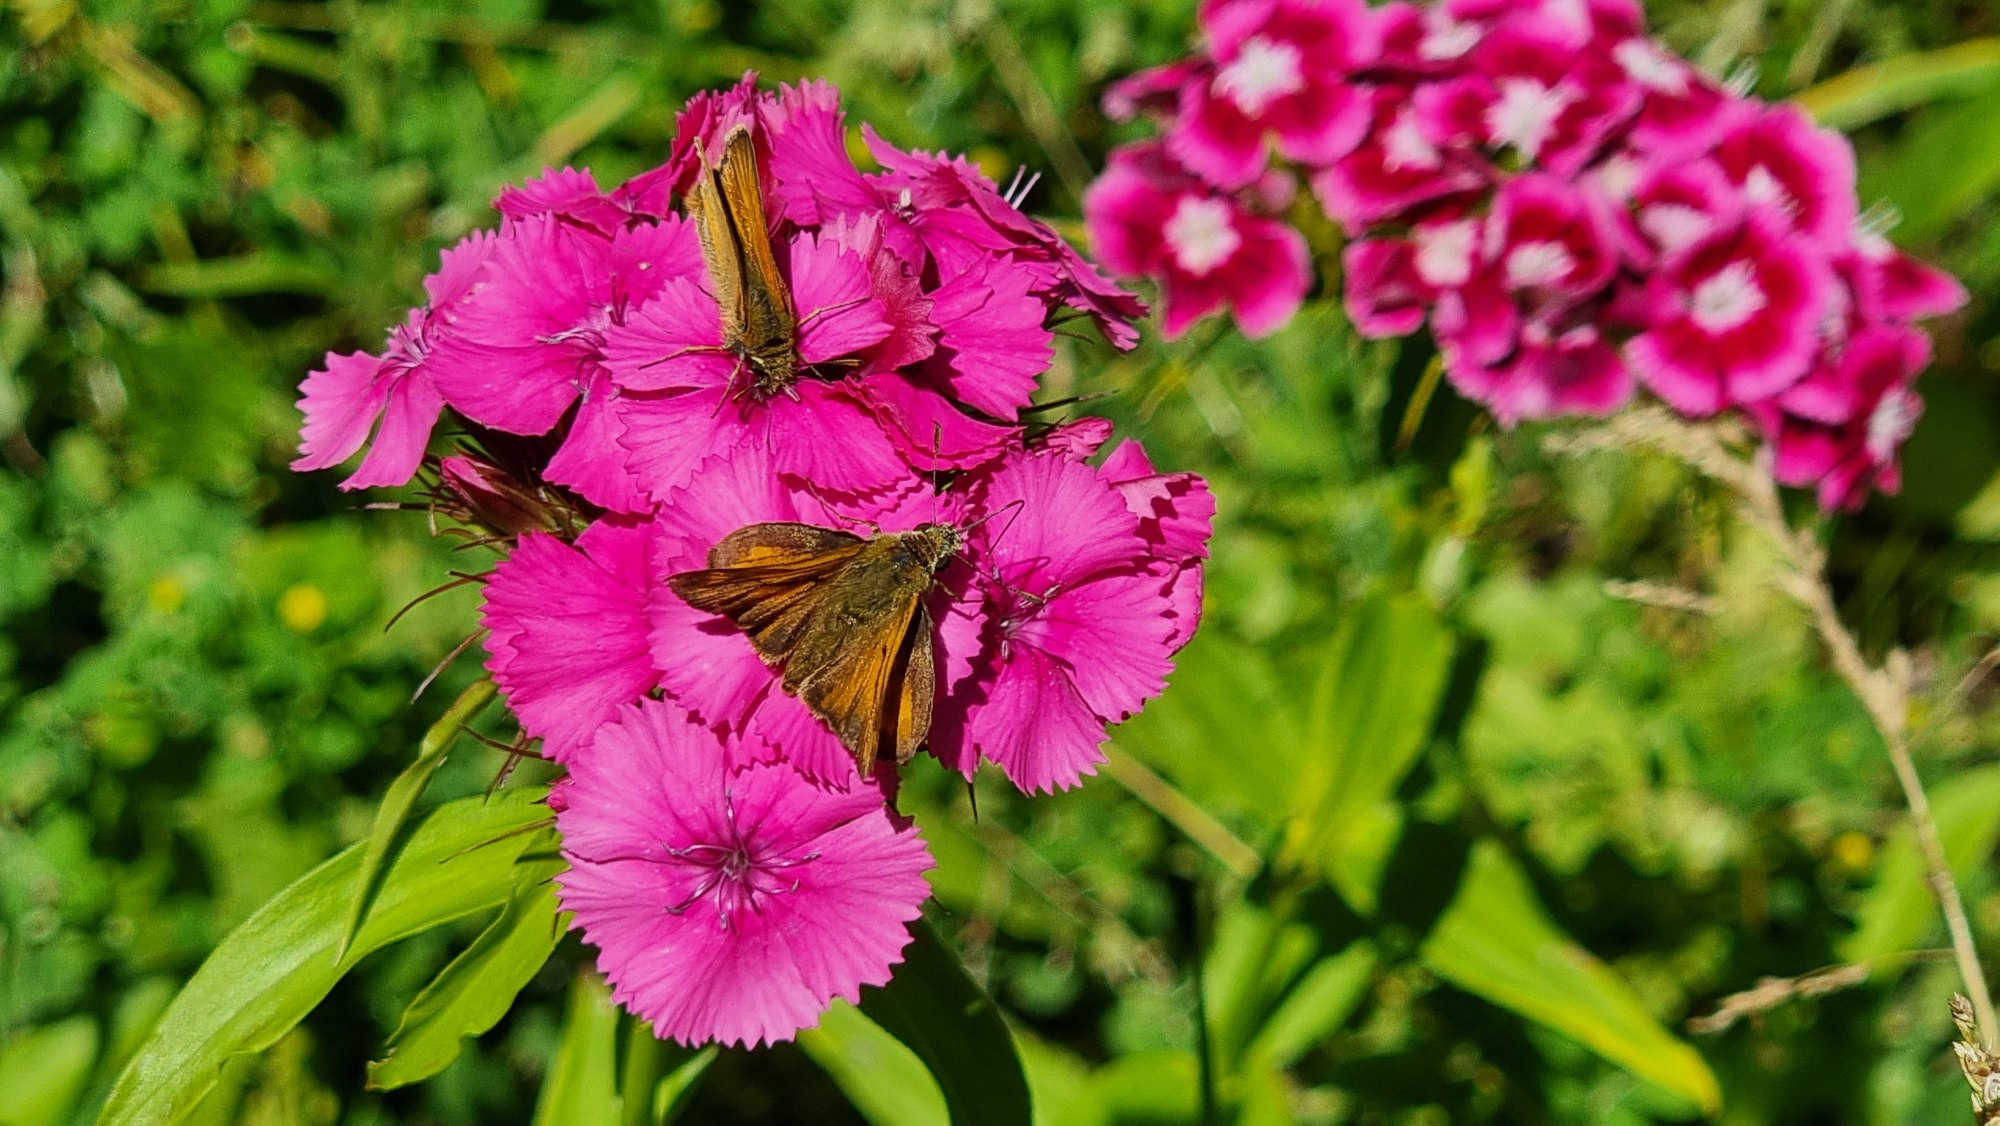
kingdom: Animalia
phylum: Arthropoda
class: Insecta
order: Lepidoptera
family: Hesperiidae
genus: Ochlodes
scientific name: Ochlodes venata
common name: Stor bredpande
